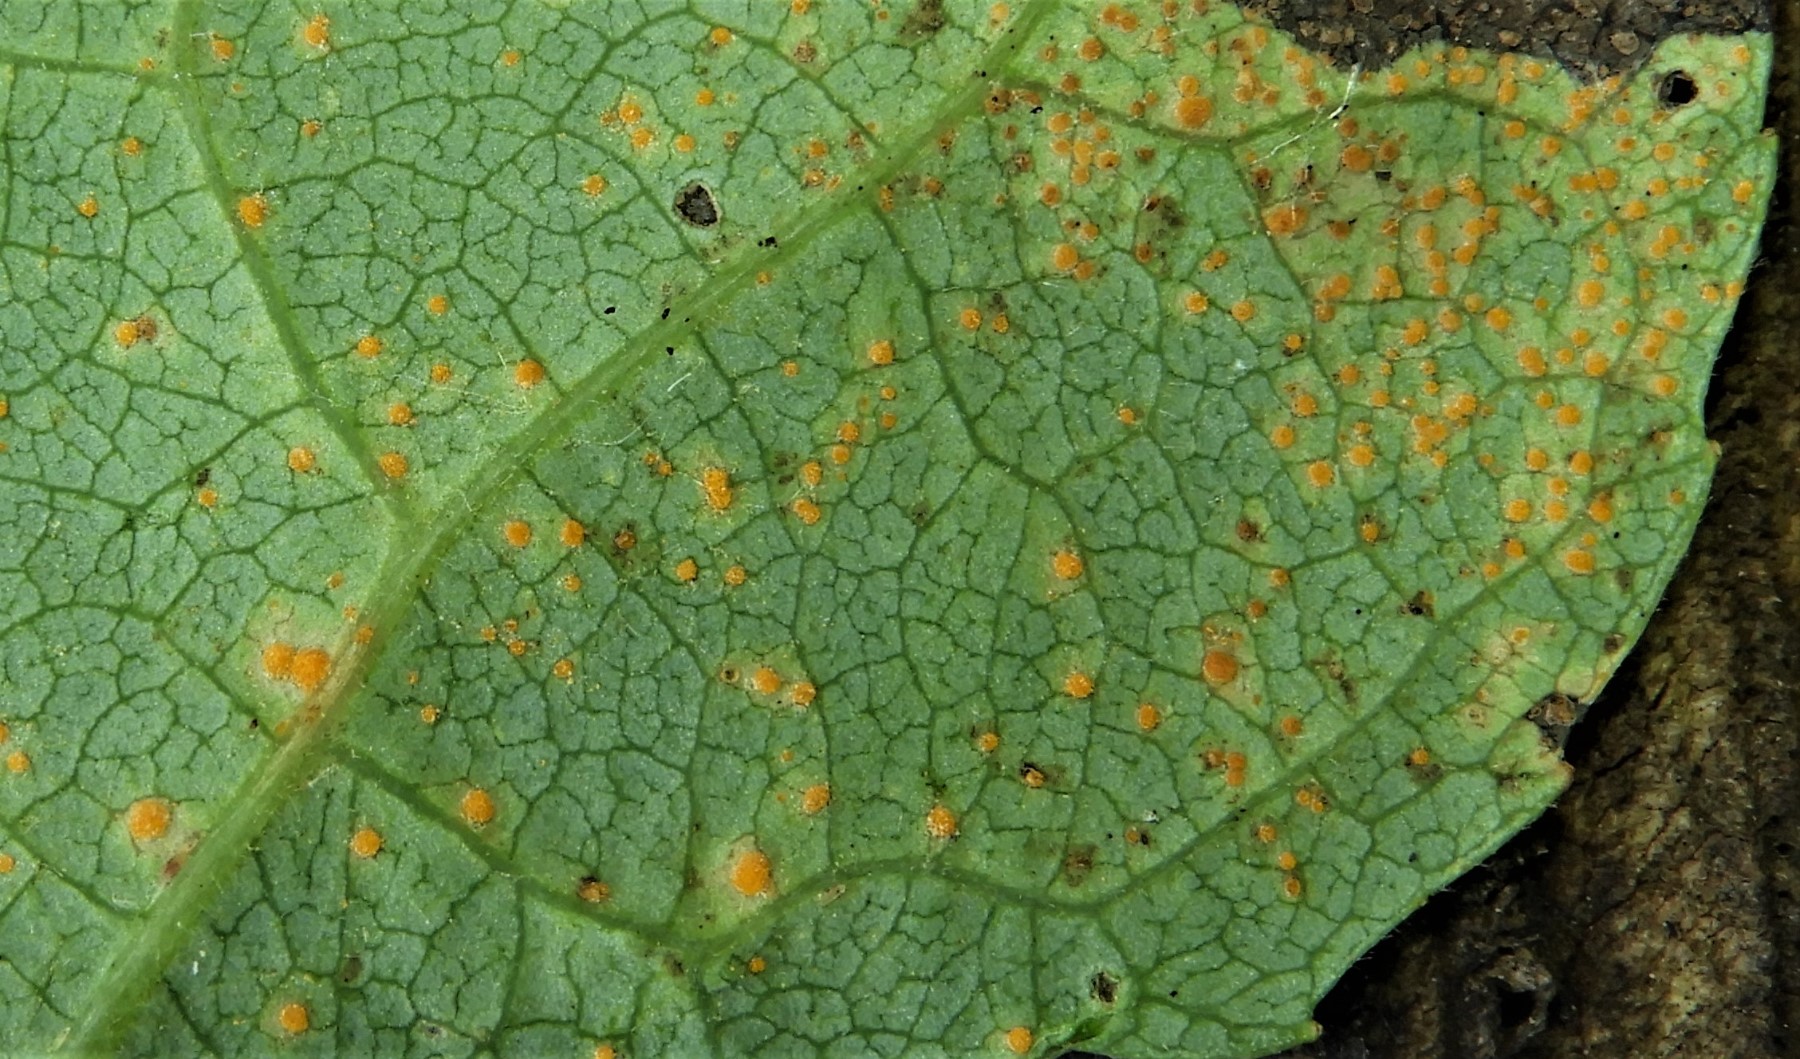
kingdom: Fungi
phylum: Basidiomycota
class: Pucciniomycetes
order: Pucciniales
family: Melampsoraceae
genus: Melampsora
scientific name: Melampsora
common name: skorperust
